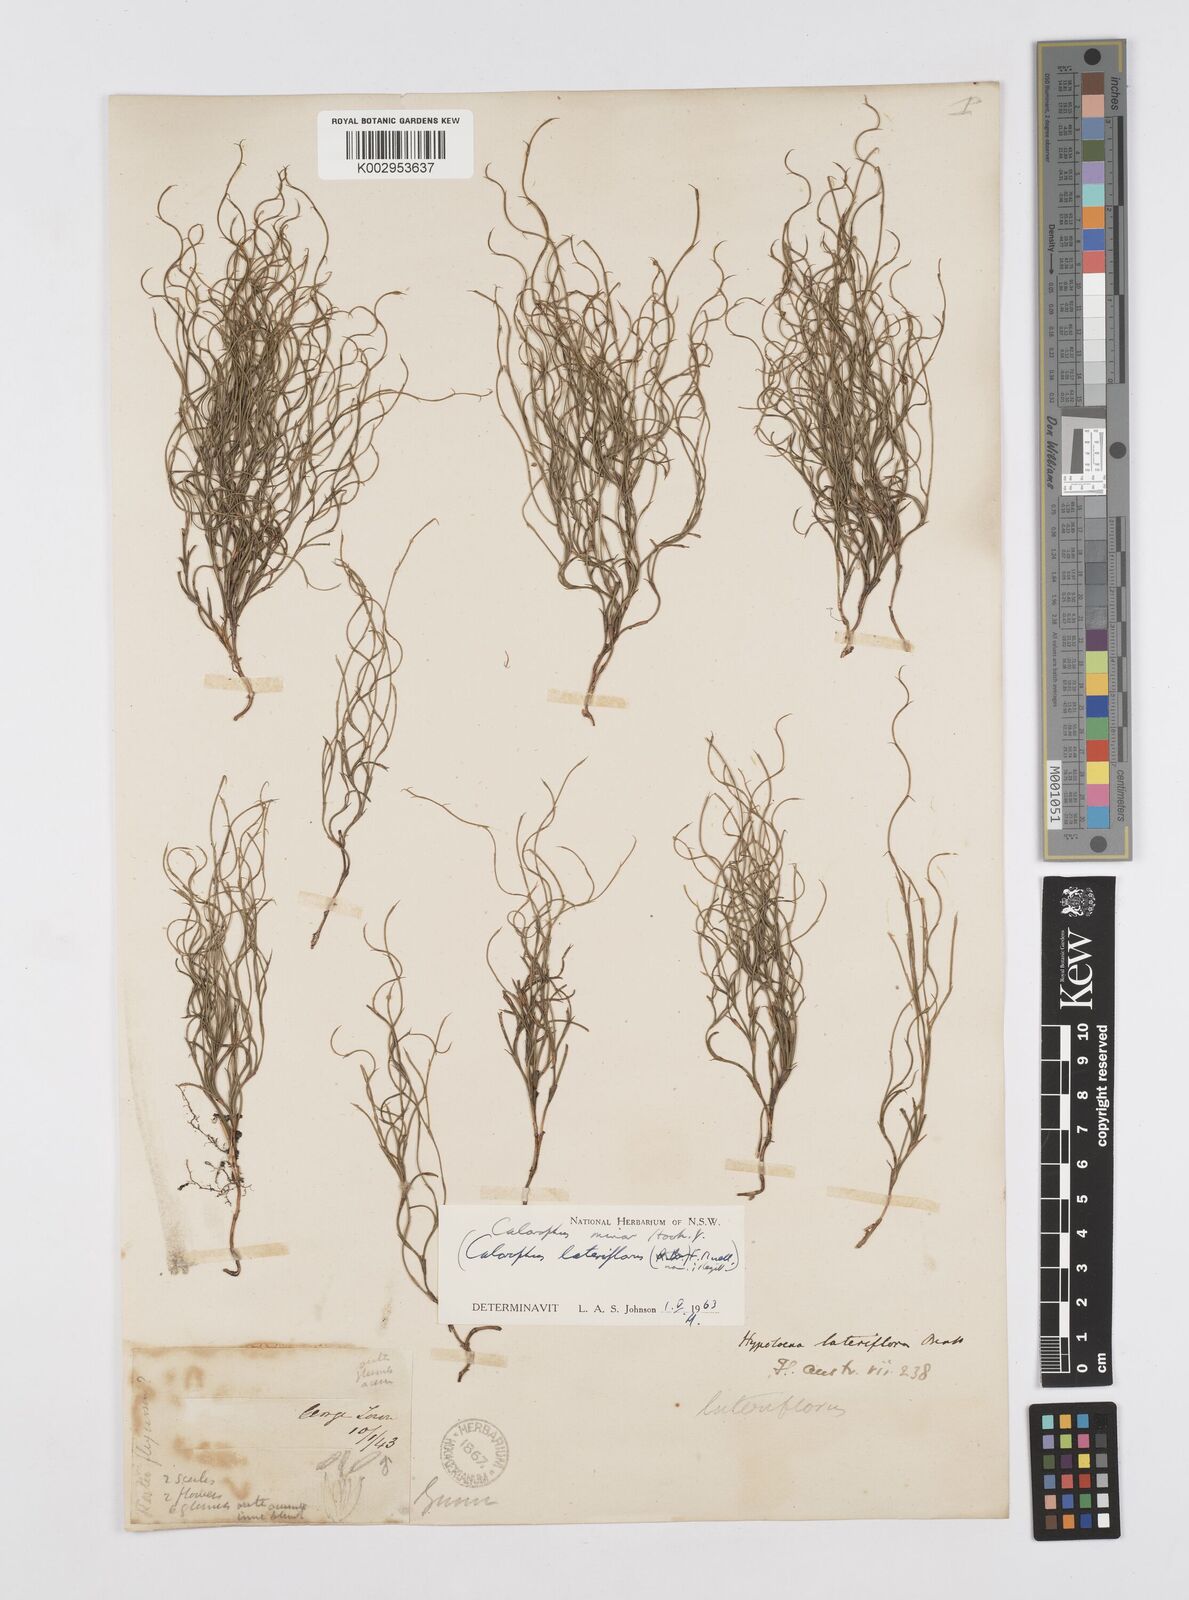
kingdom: Plantae
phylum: Tracheophyta
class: Liliopsida
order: Poales
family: Restionaceae
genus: Empodisma
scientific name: Empodisma minus
